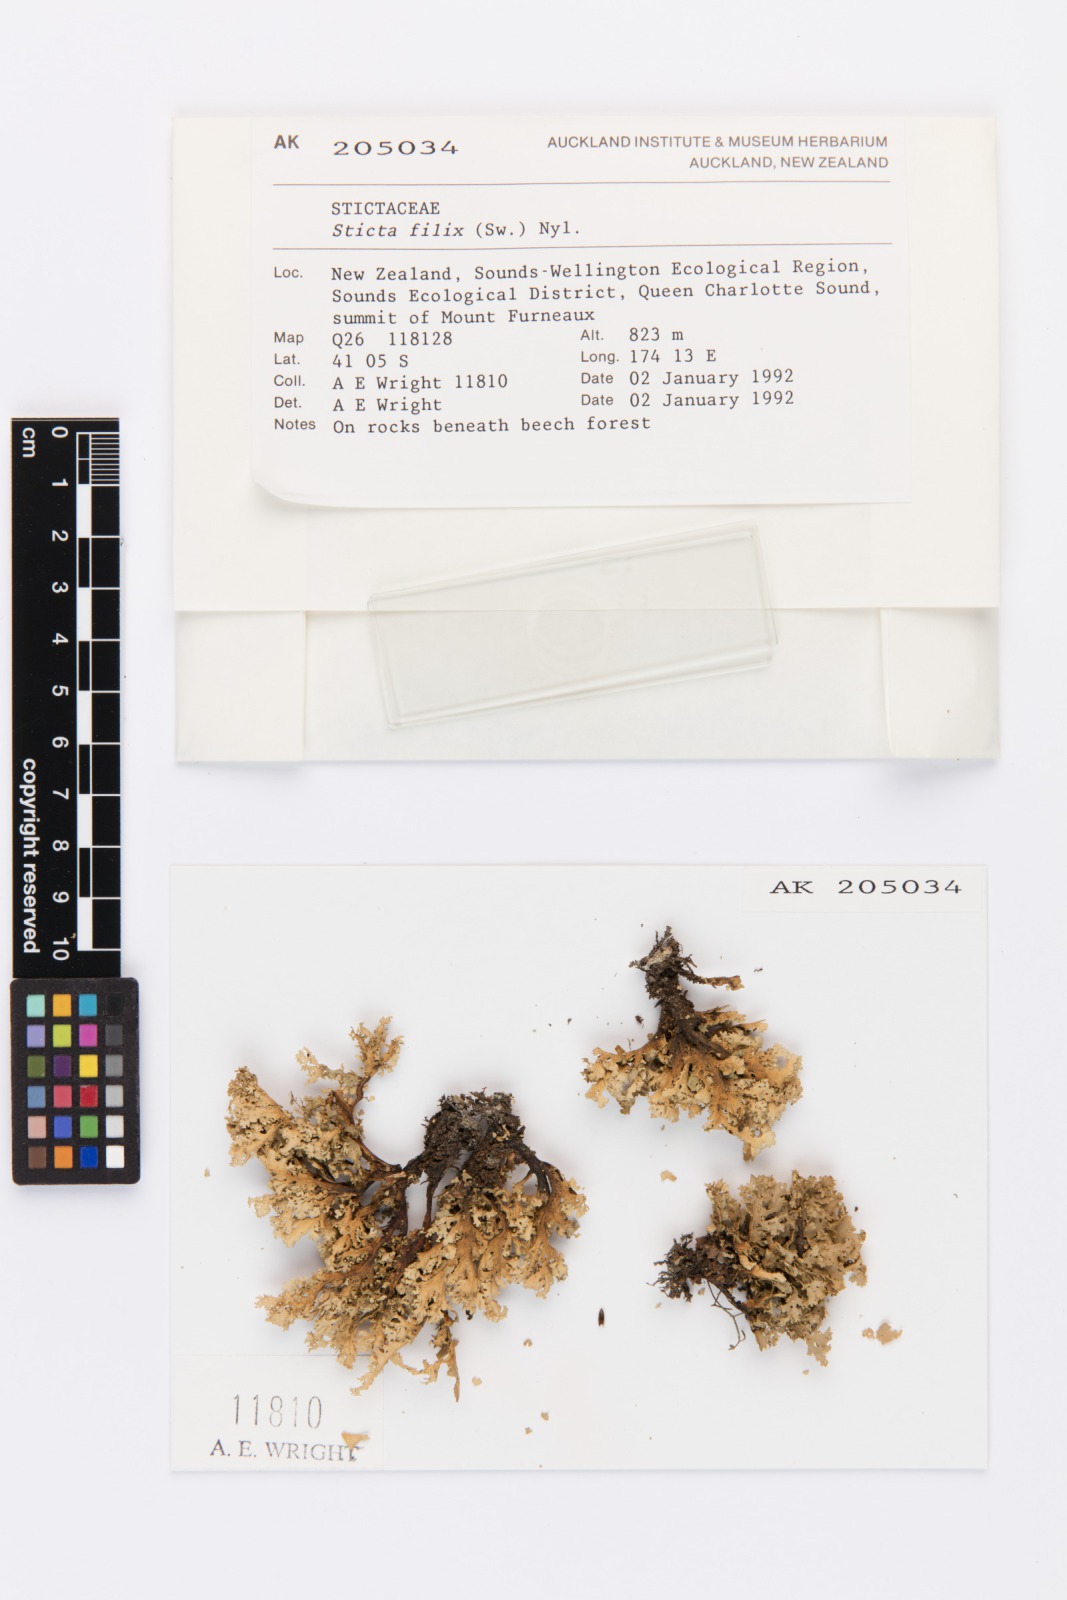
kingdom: Fungi
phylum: Ascomycota
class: Lecanoromycetes
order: Peltigerales
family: Lobariaceae
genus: Sticta
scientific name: Sticta filix
